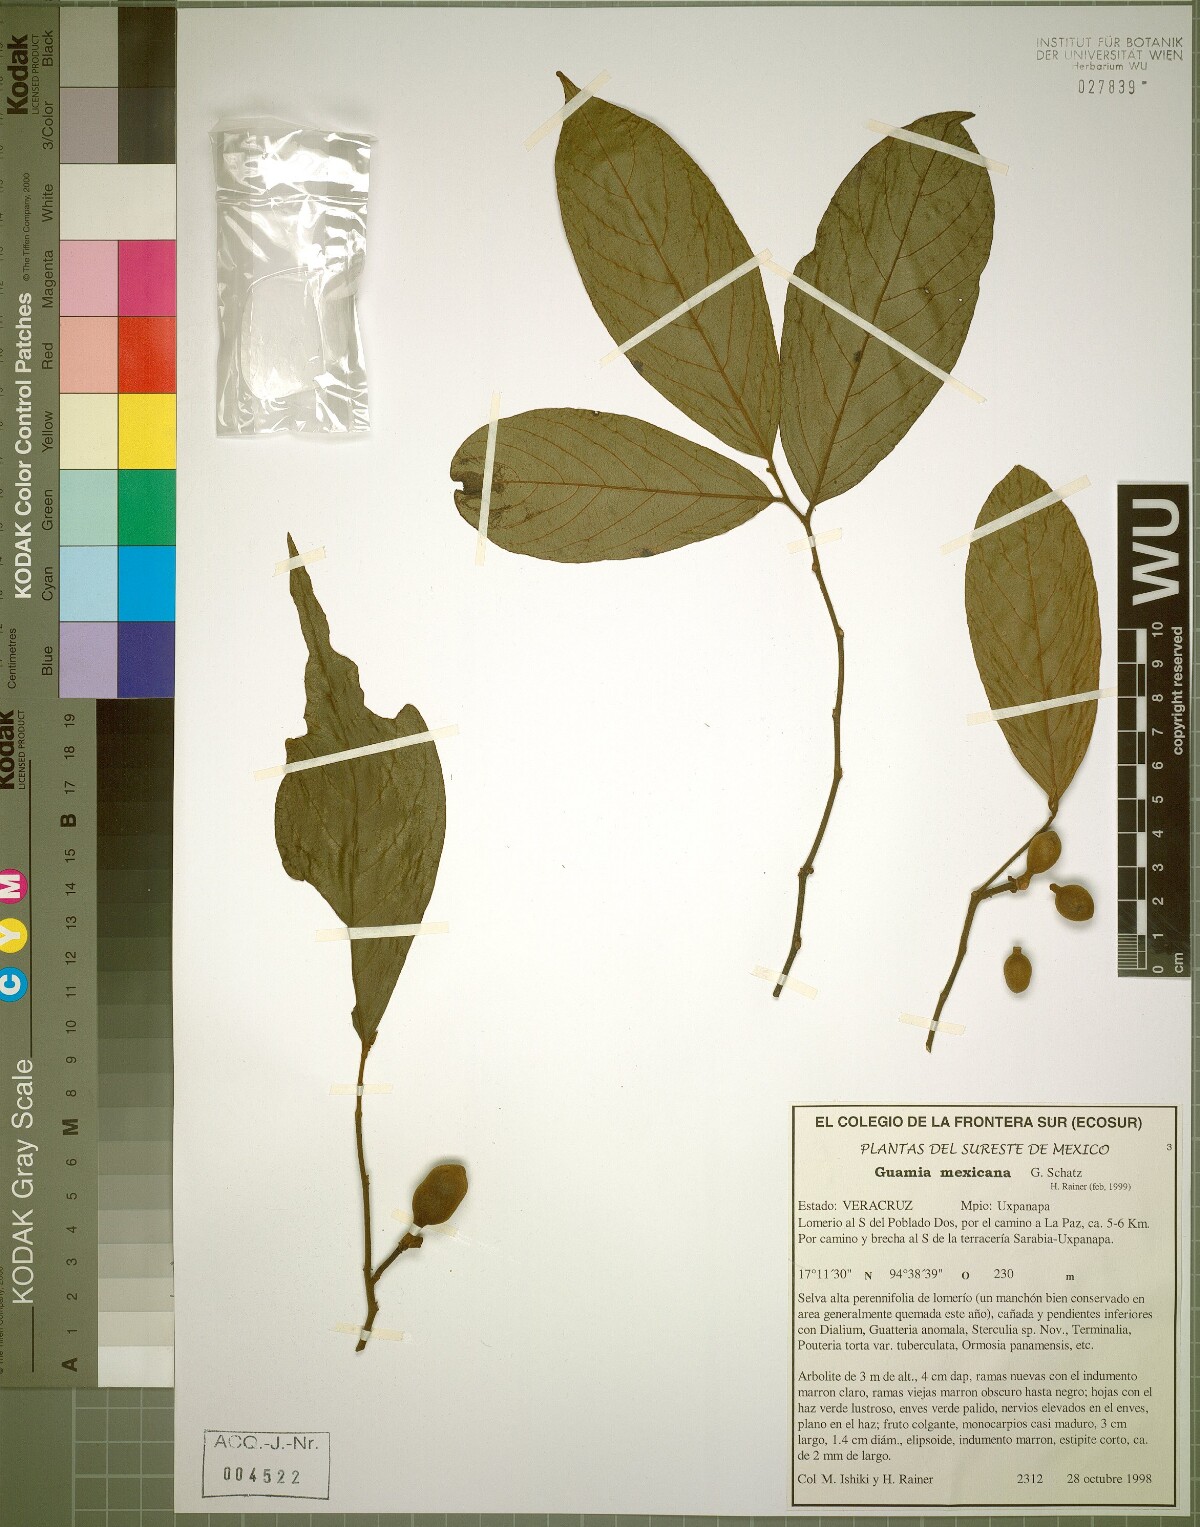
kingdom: Animalia
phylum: Mollusca
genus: Guamia
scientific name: Guamia
